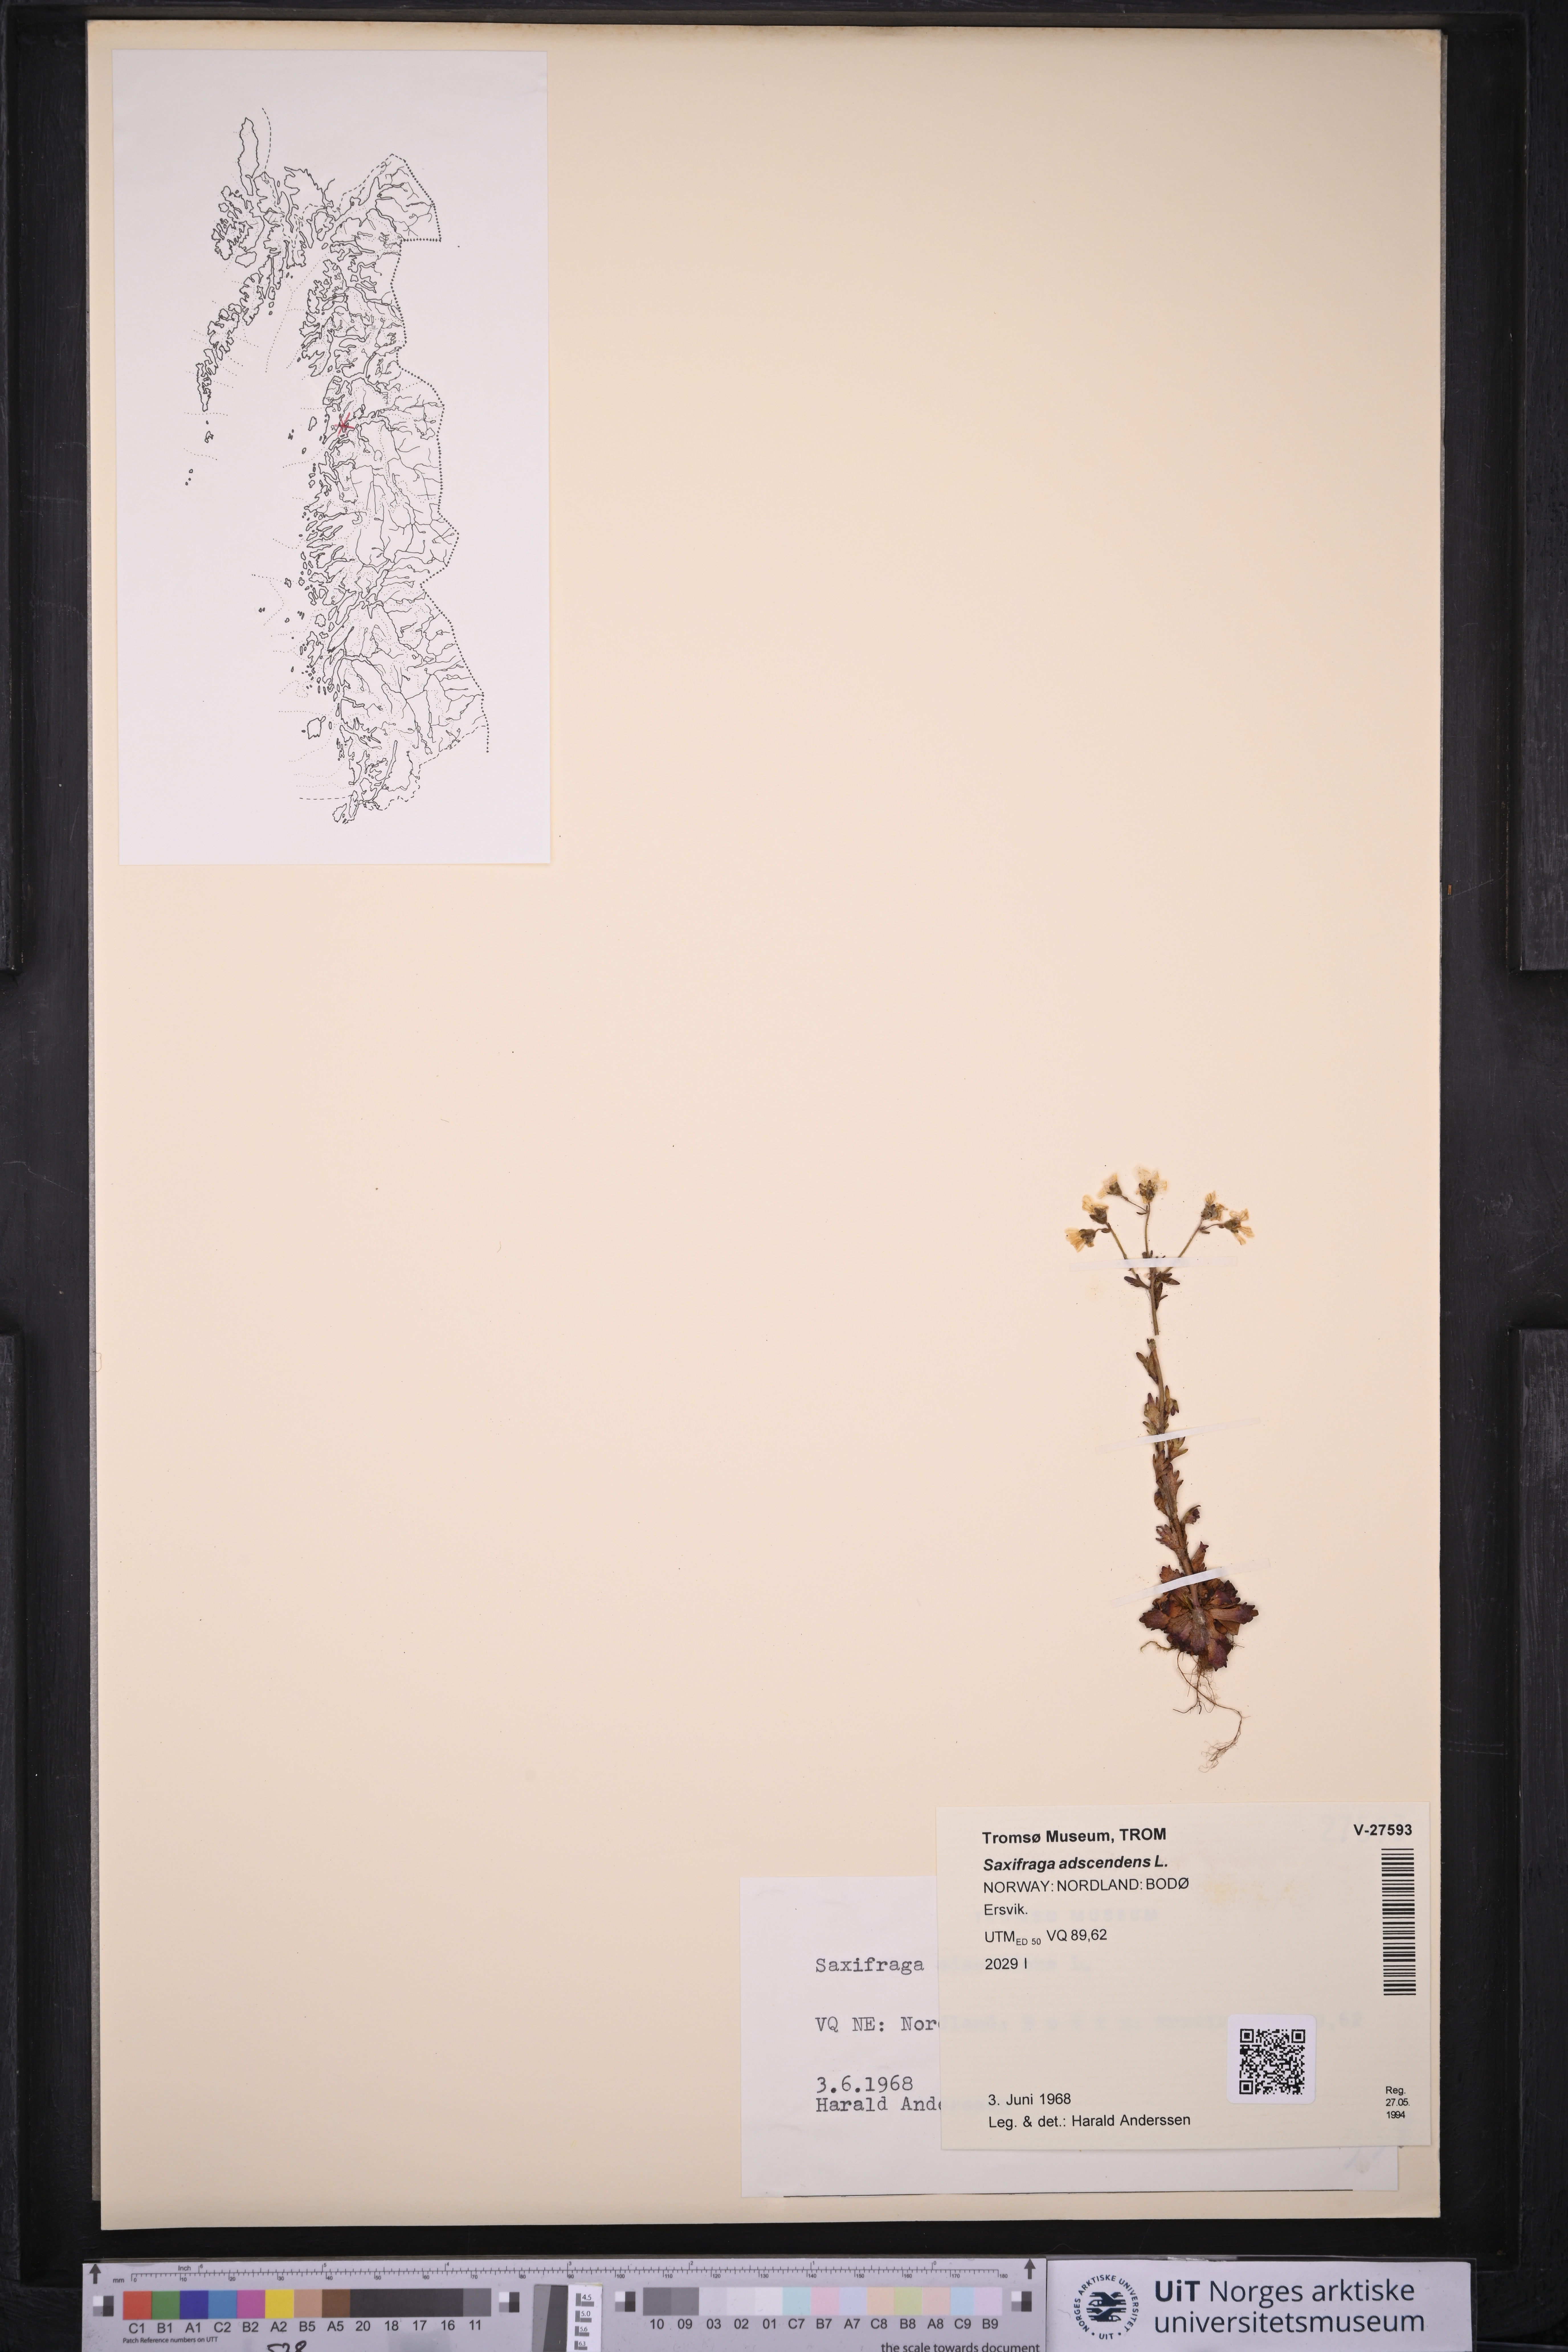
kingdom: Plantae
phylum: Tracheophyta
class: Magnoliopsida
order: Saxifragales
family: Saxifragaceae
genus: Saxifraga
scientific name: Saxifraga adscendens
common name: Ascending saxifrage
